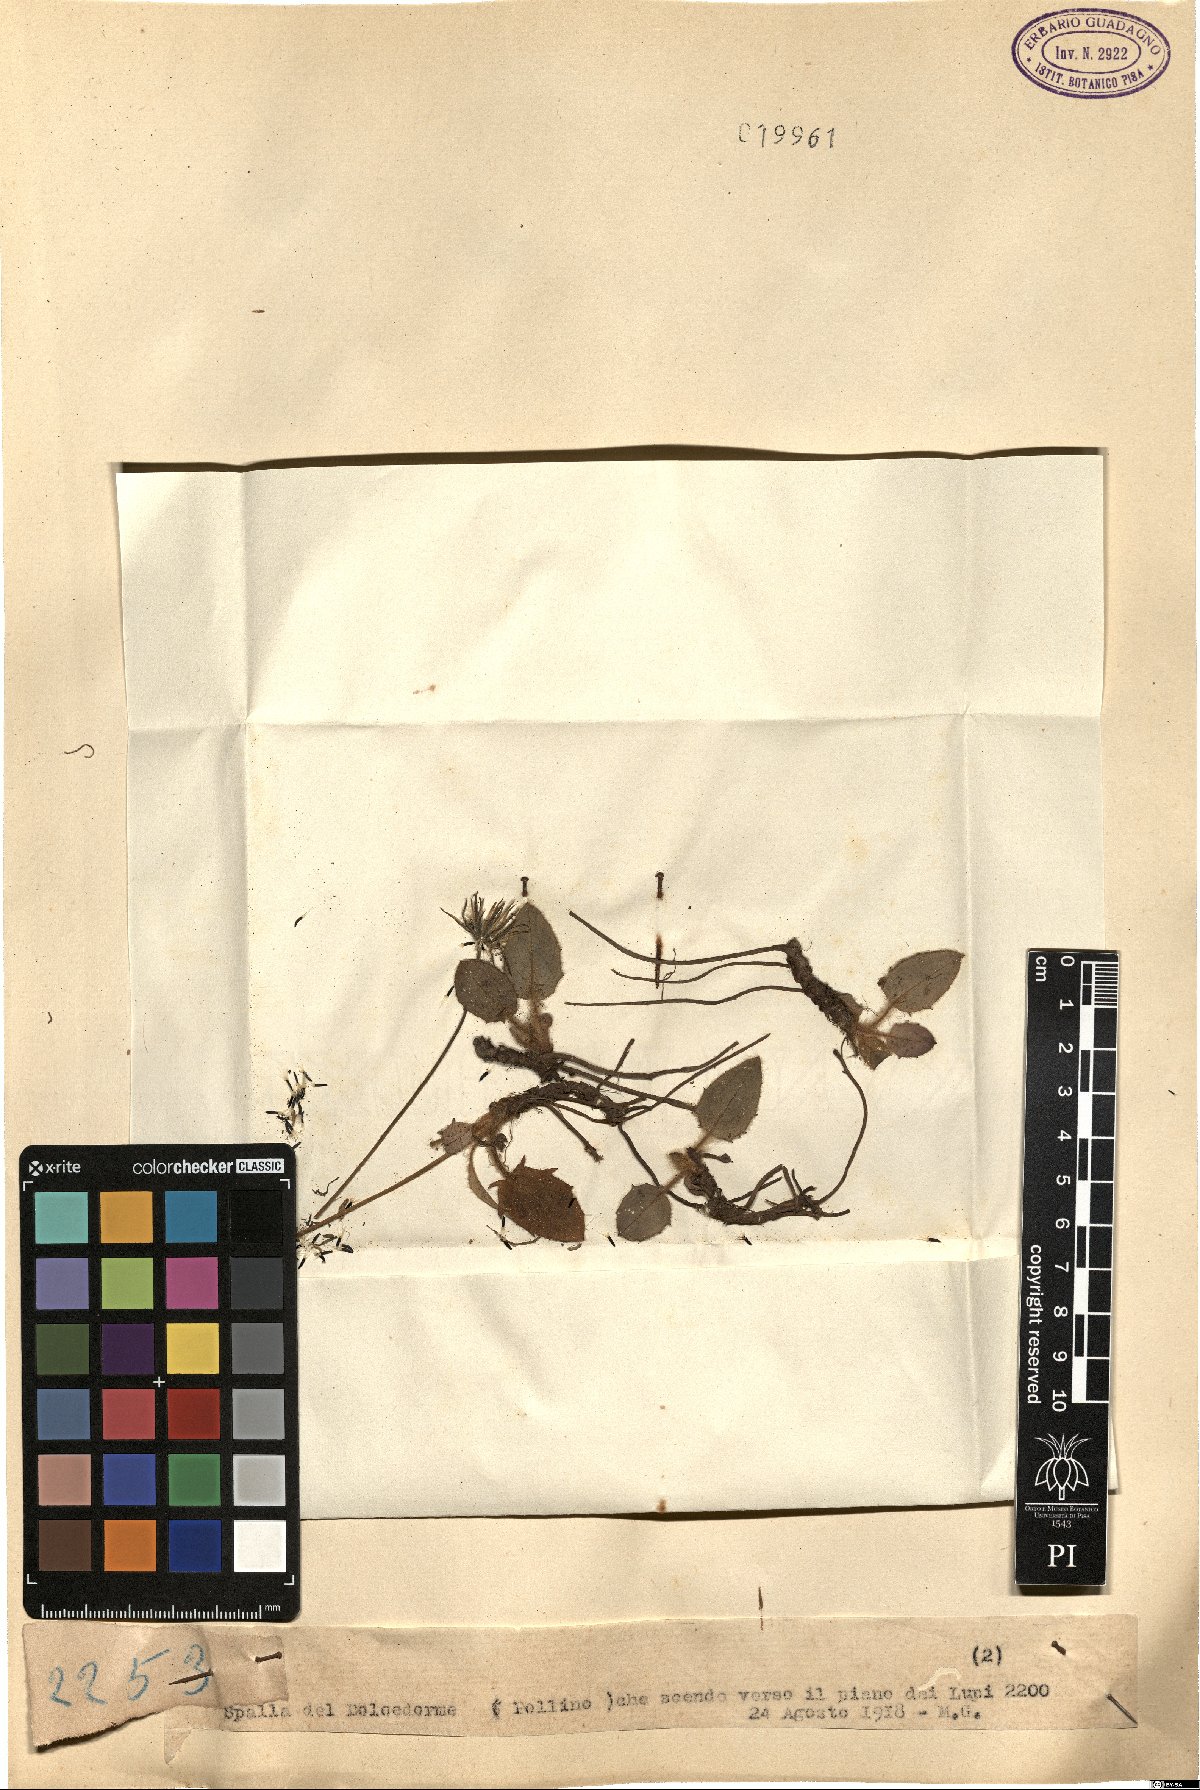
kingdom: Plantae
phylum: Tracheophyta
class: Magnoliopsida
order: Asterales
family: Asteraceae
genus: Hieracium
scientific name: Hieracium
